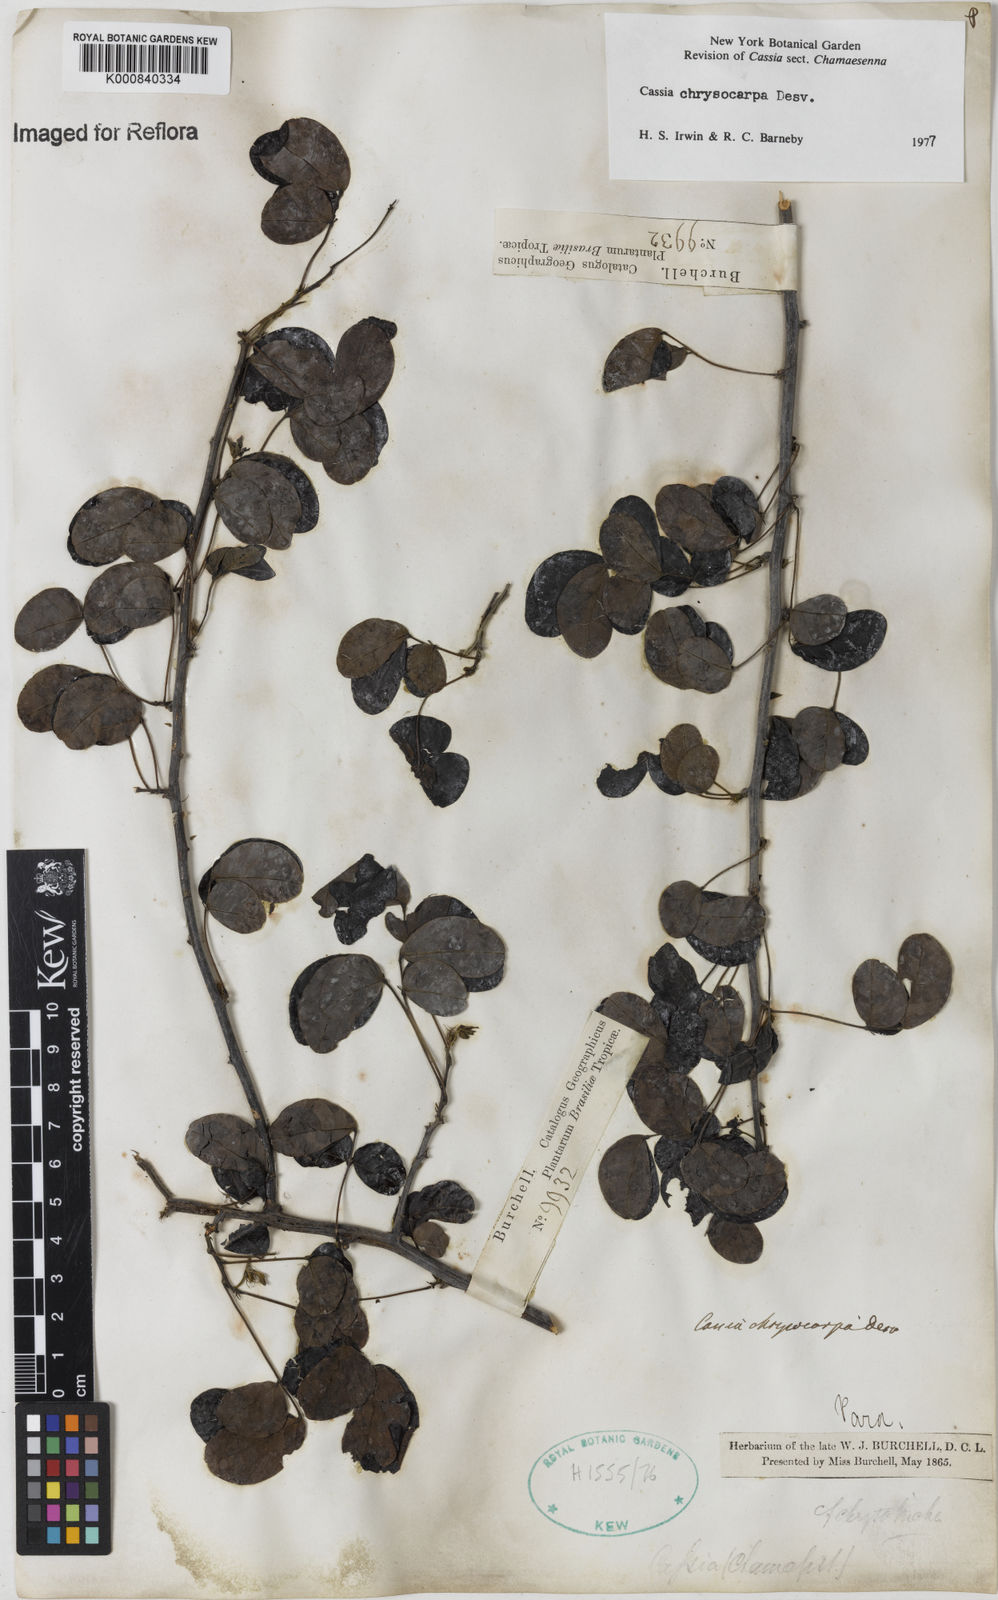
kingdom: Plantae
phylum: Tracheophyta
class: Magnoliopsida
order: Fabales
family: Fabaceae
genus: Senna
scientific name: Senna chrysocarpa
